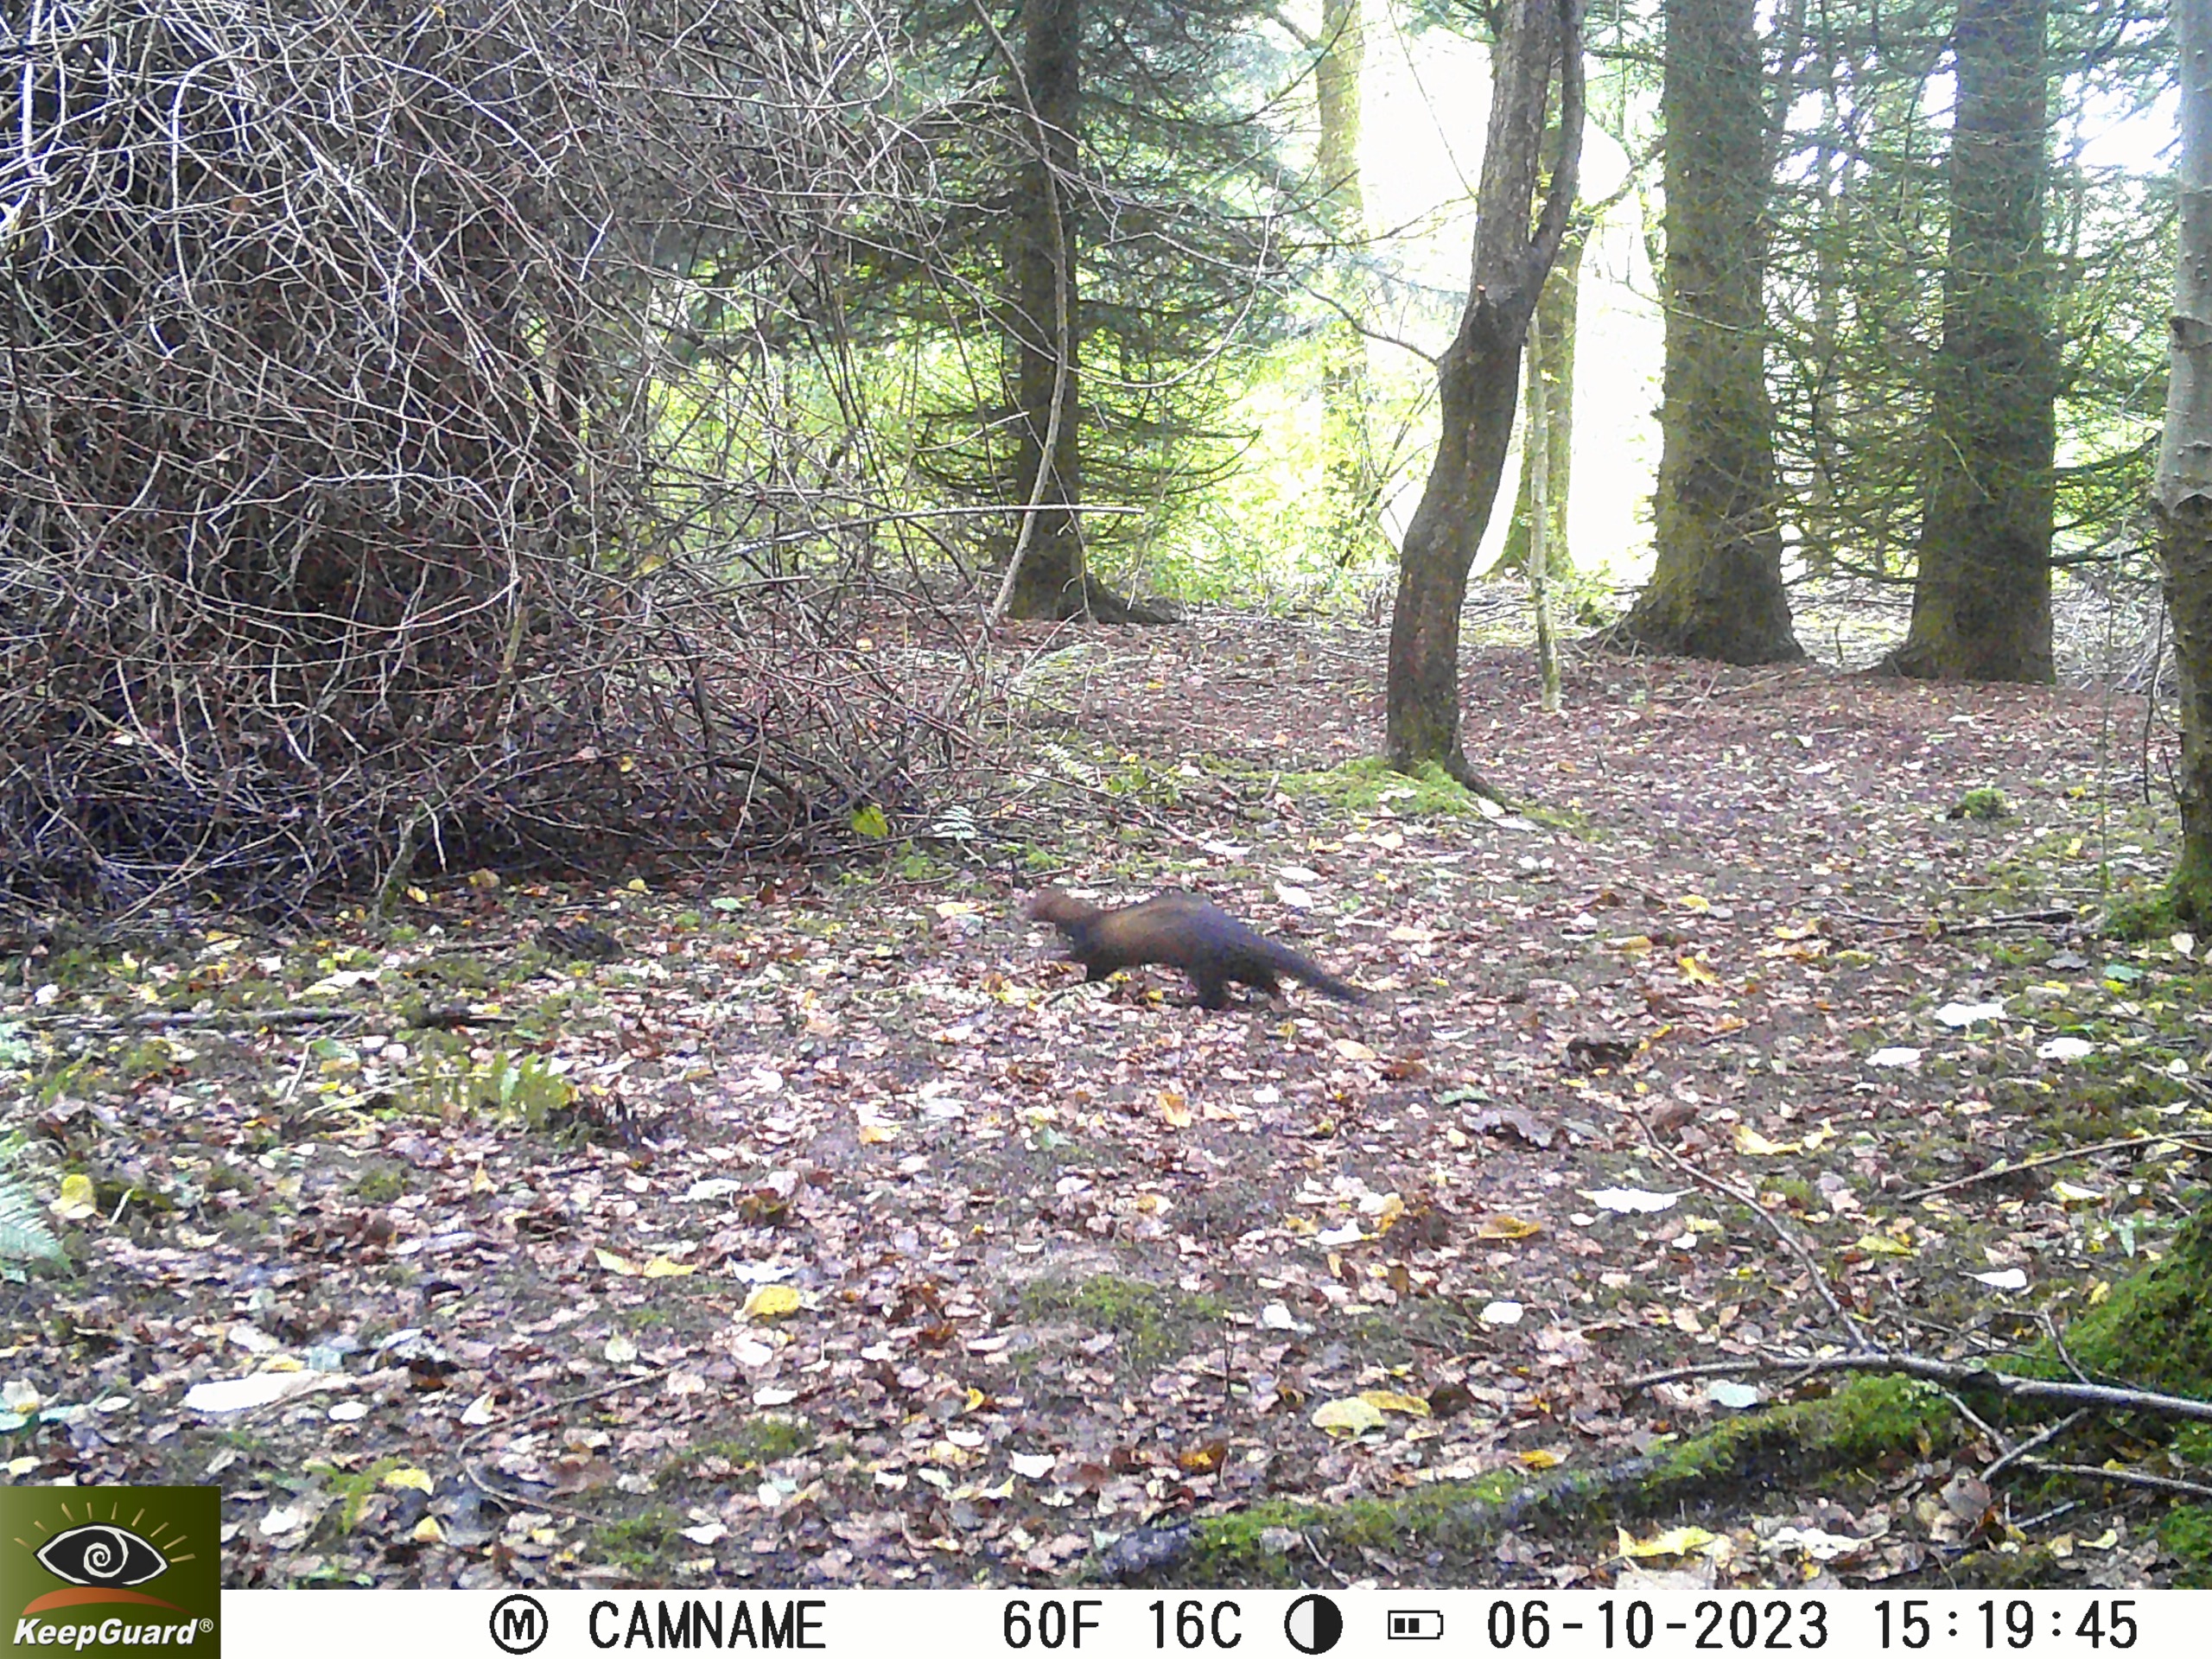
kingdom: Animalia
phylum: Chordata
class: Mammalia
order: Carnivora
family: Mustelidae
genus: Mustela
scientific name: Mustela putorius
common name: Ilder
